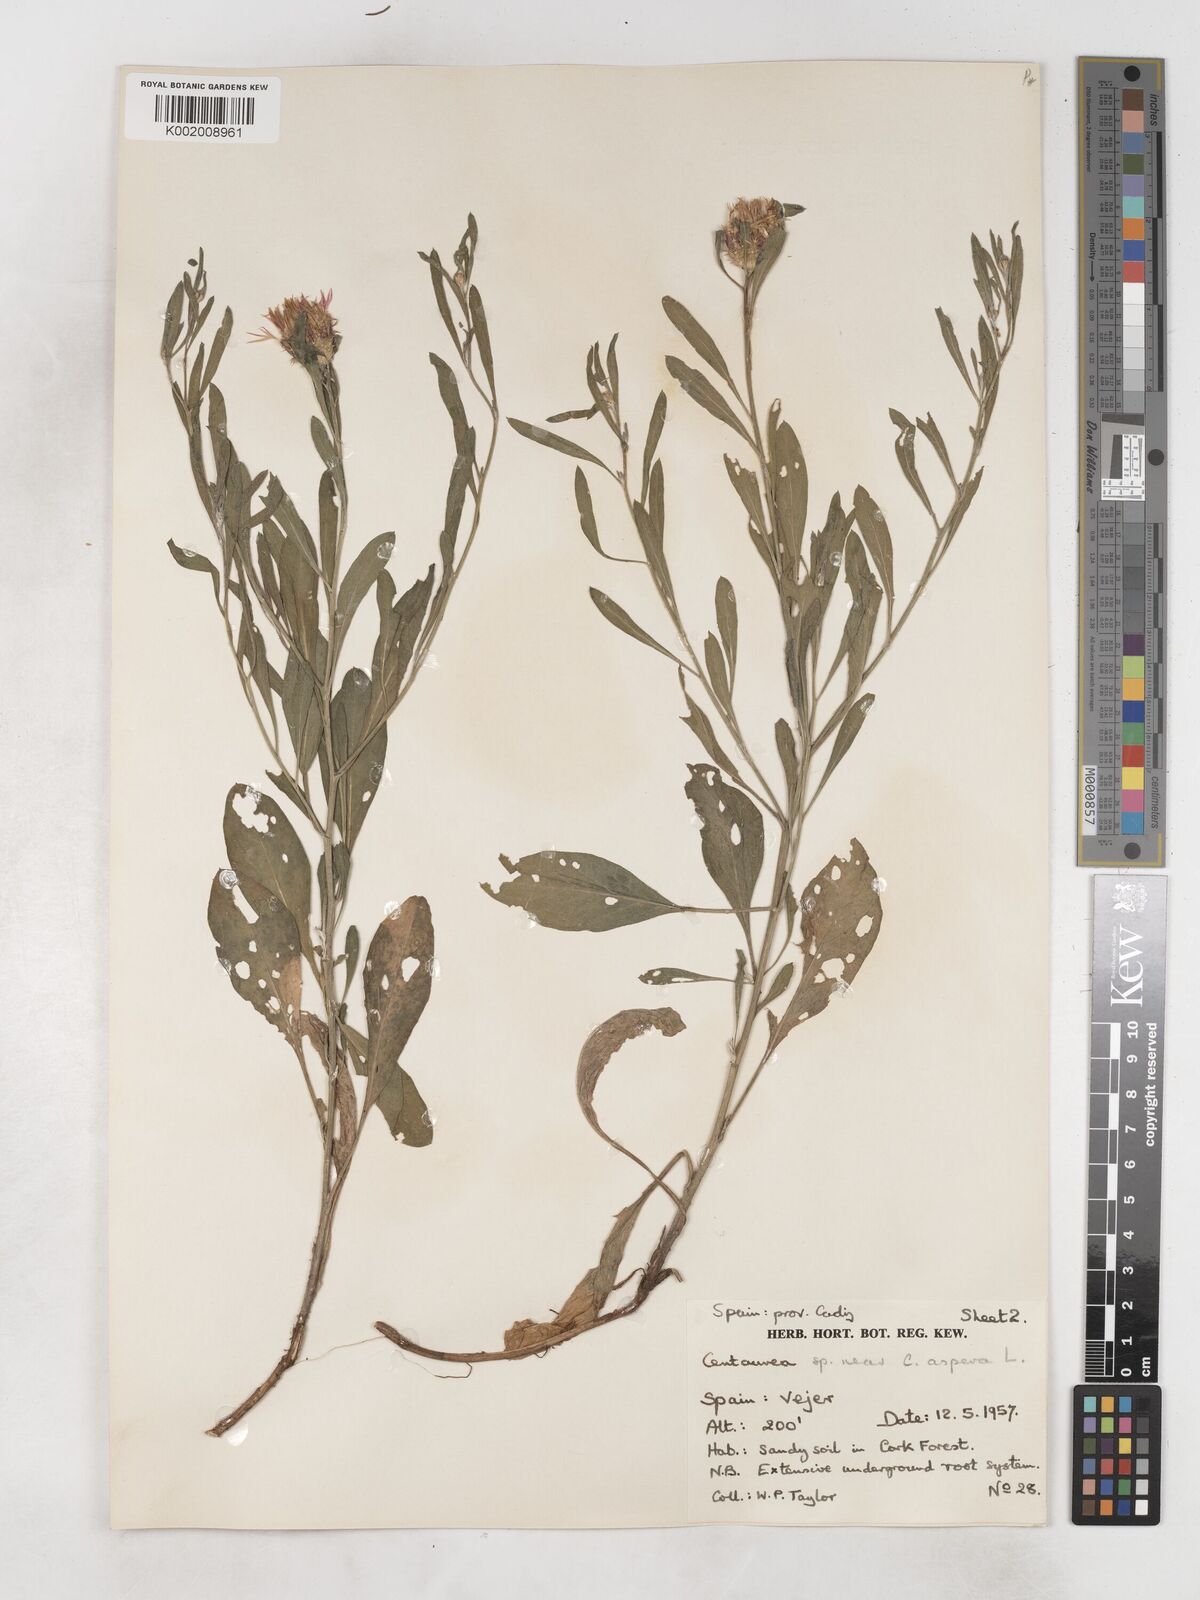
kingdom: Plantae
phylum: Tracheophyta
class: Magnoliopsida
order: Asterales
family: Asteraceae
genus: Centaurea
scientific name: Centaurea aspera
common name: Rough star-thistle
